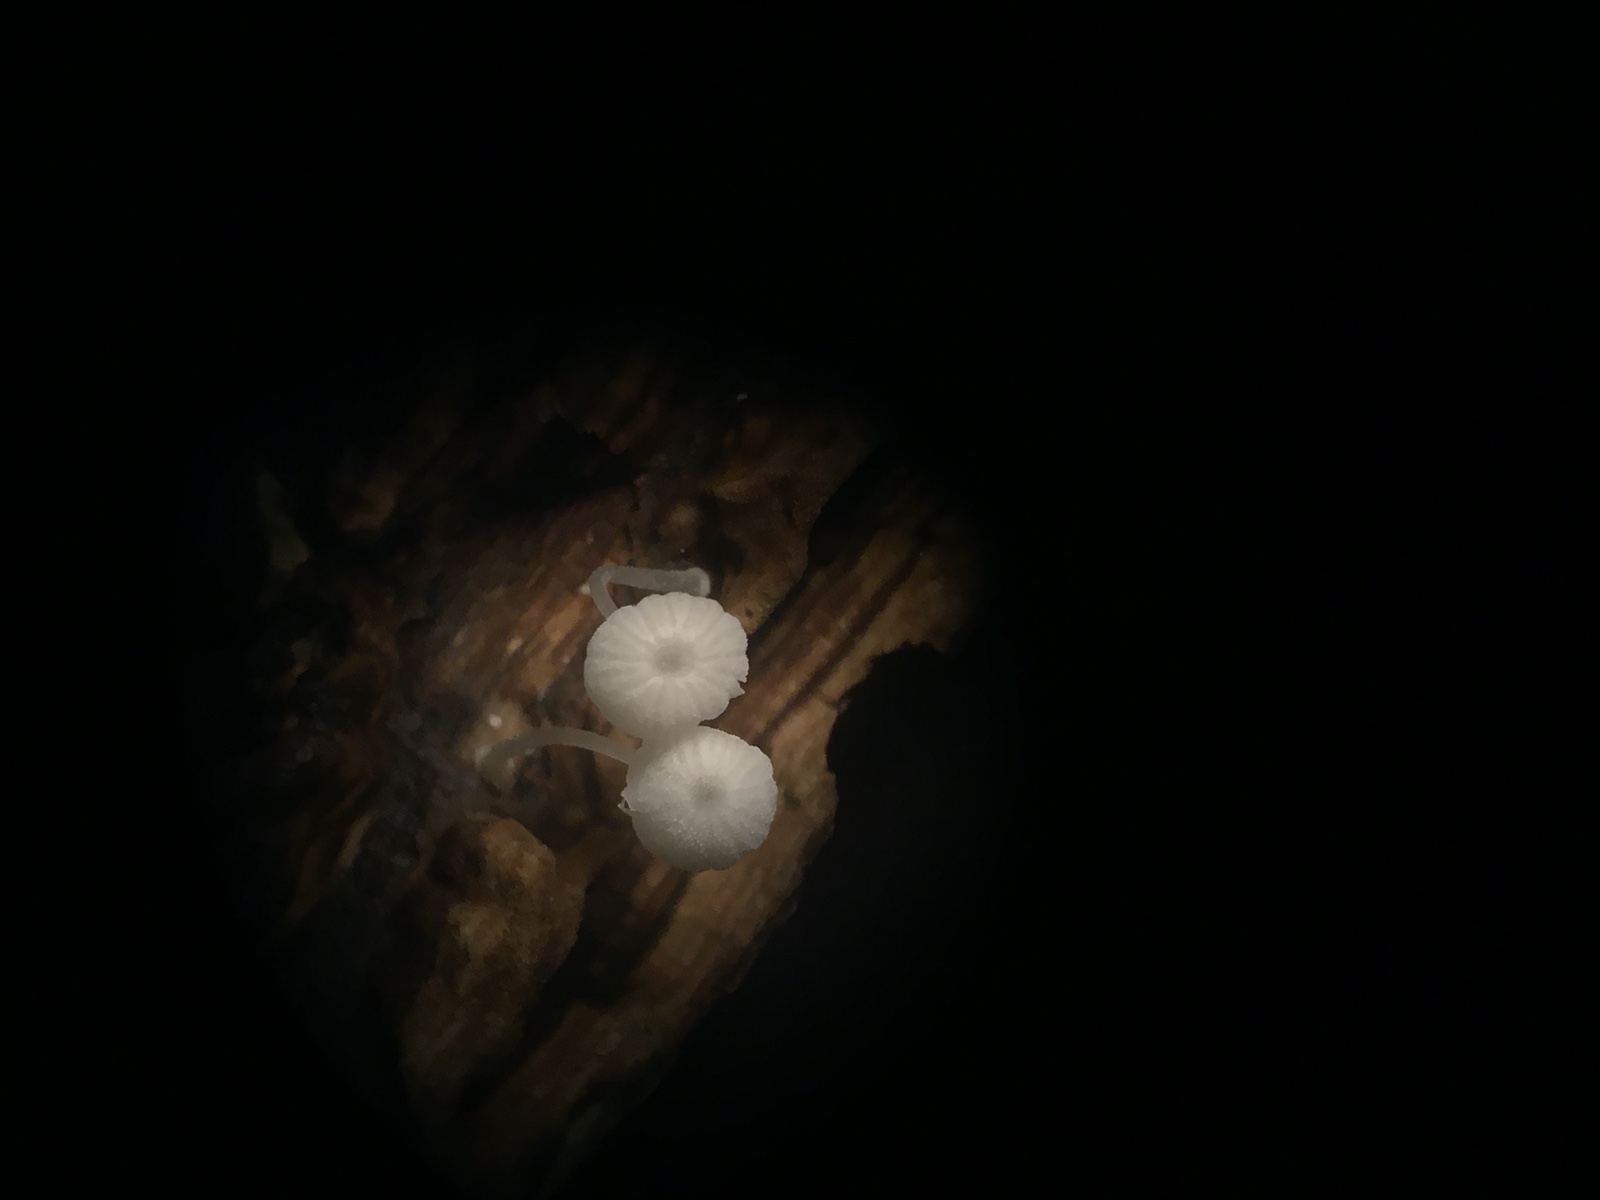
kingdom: Fungi
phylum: Basidiomycota
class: Agaricomycetes
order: Agaricales
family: Mycenaceae
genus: Mycena
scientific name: Mycena tenerrima
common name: pudret huesvamp
